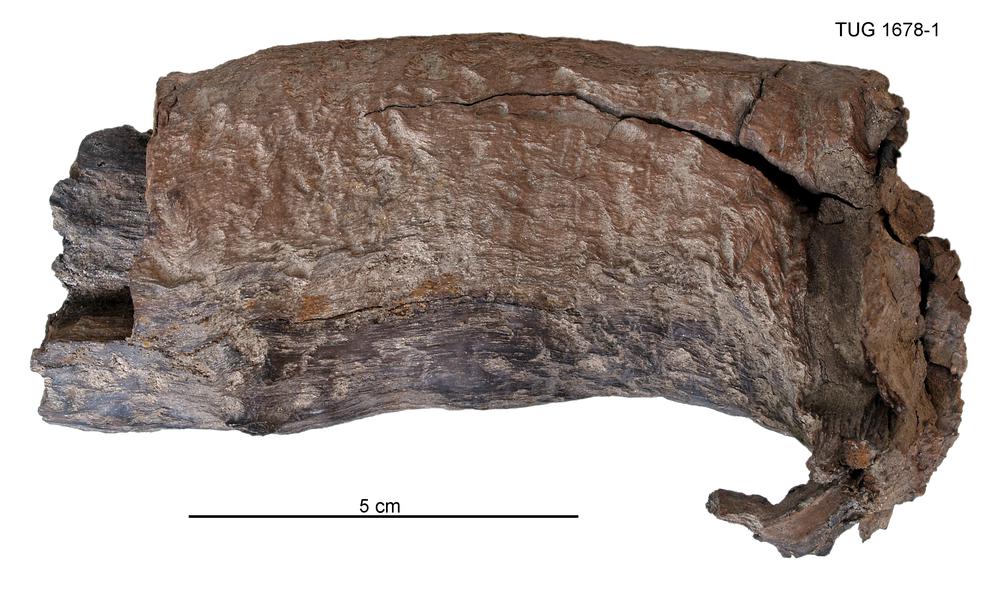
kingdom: Plantae
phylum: Tracheophyta
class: Pinopsida
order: Pinales
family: Pinaceae
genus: Pinus
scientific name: Pinus sylvestris
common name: Scots pine
